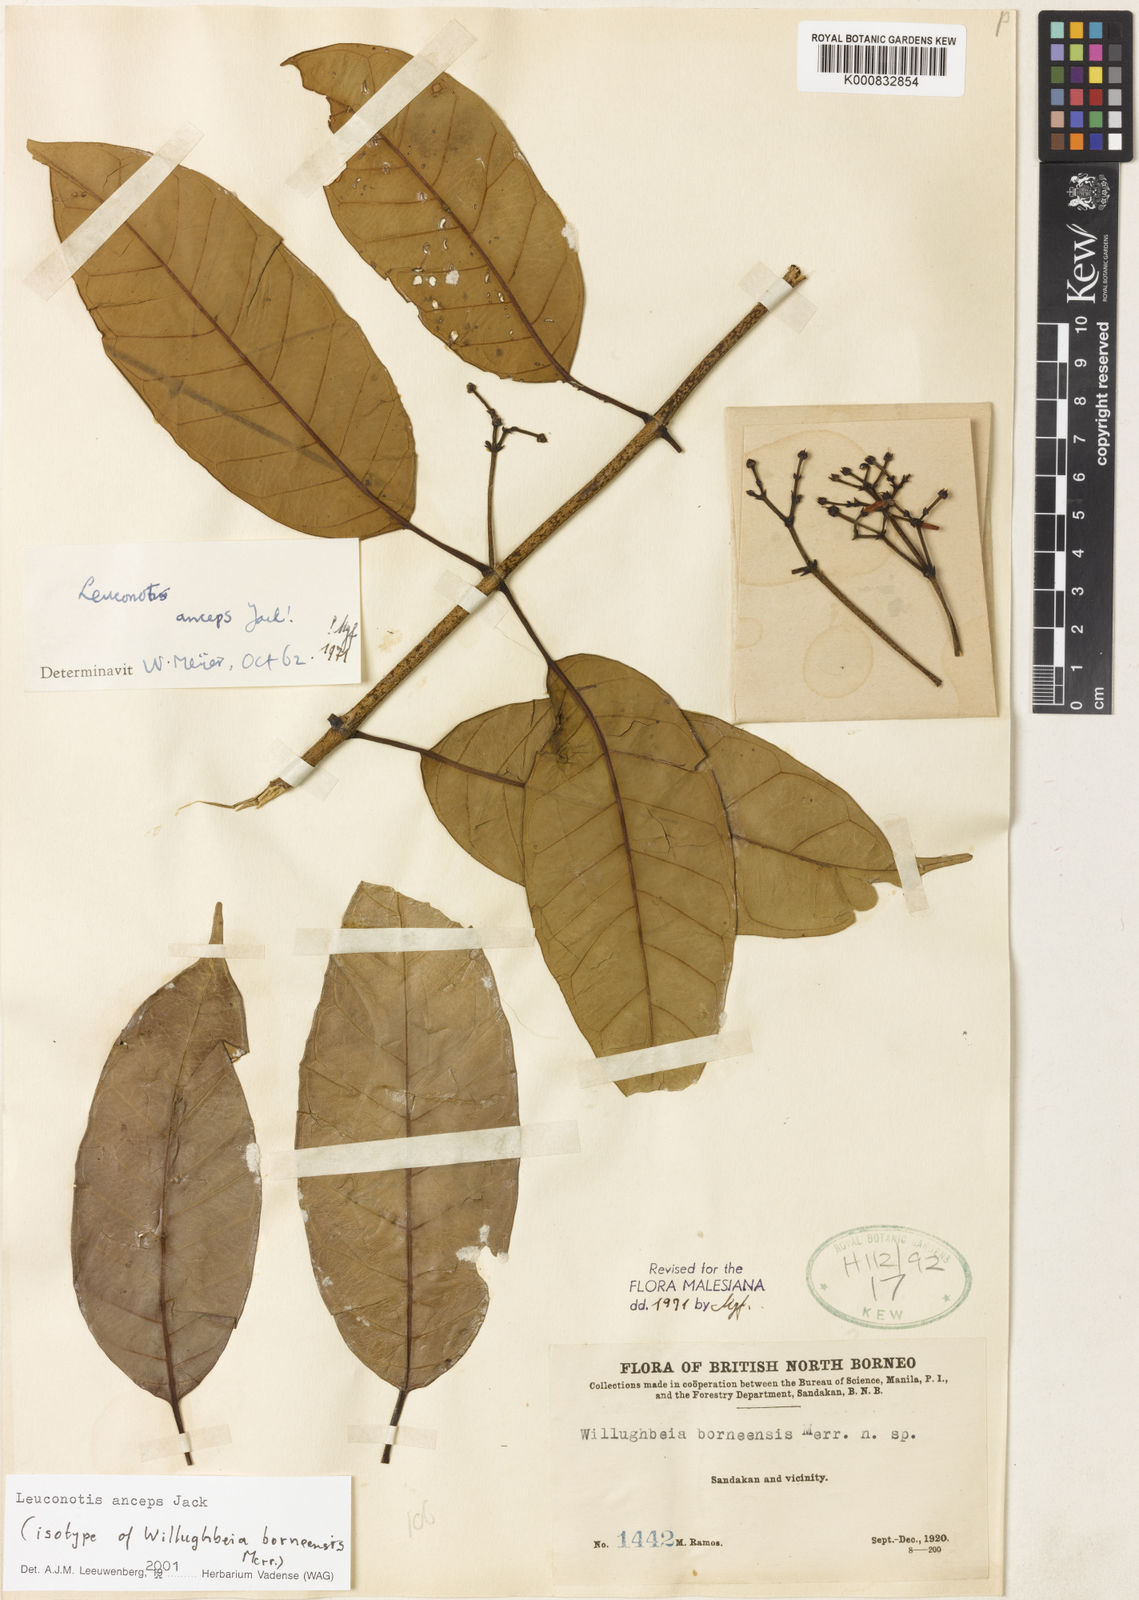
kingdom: Plantae
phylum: Tracheophyta
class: Magnoliopsida
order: Gentianales
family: Apocynaceae
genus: Leuconotis
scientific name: Leuconotis anceps
